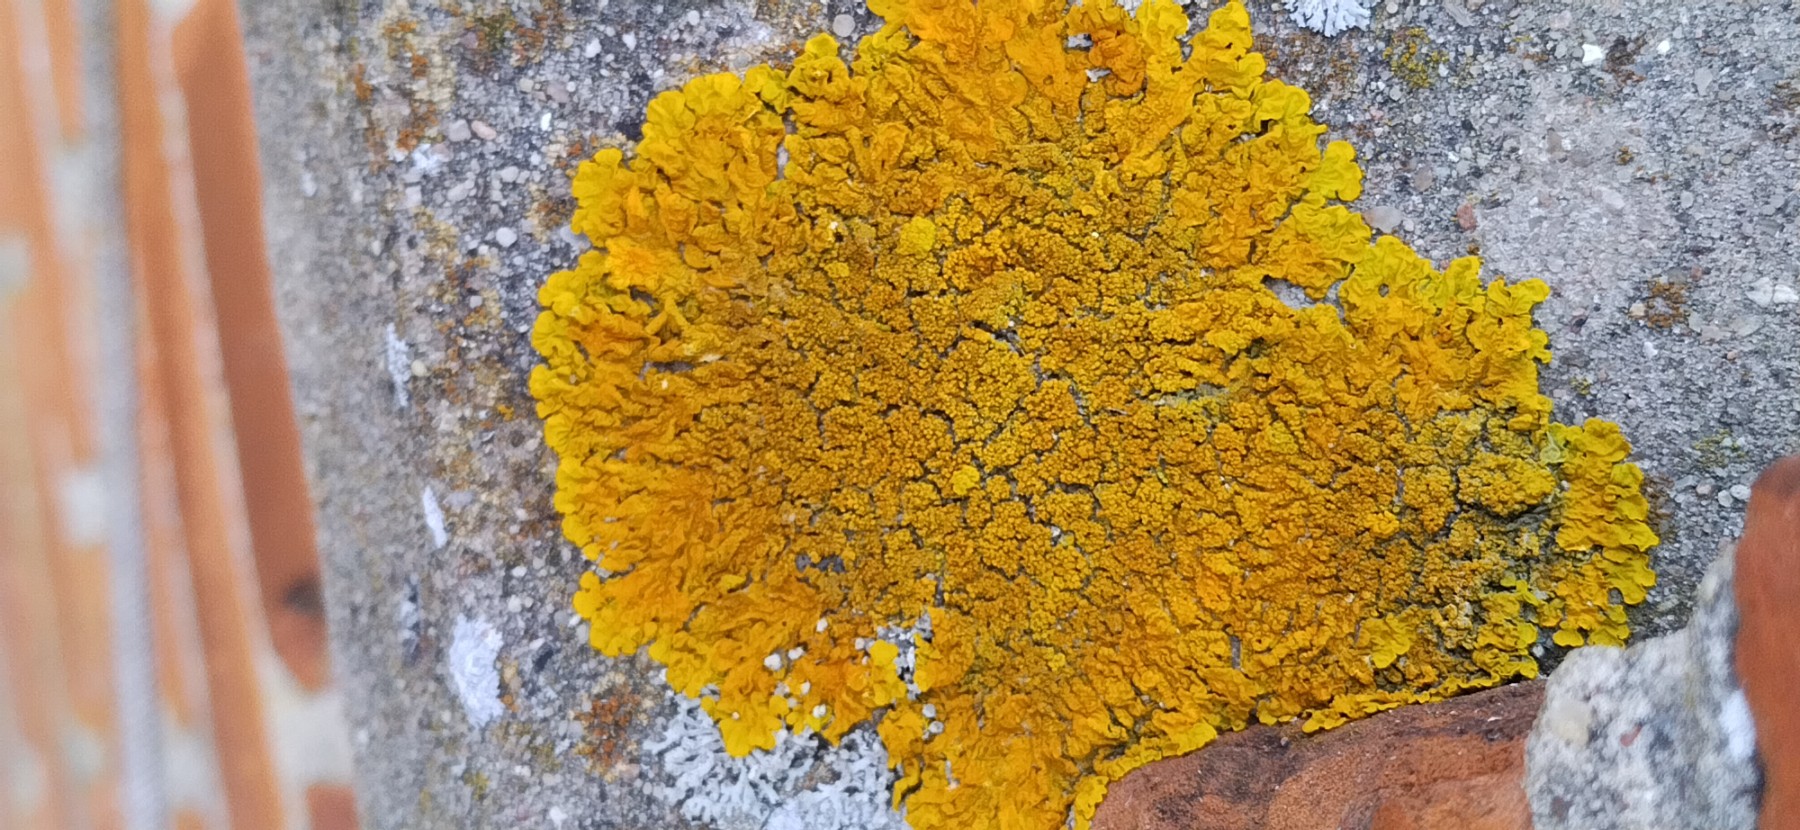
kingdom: Fungi
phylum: Ascomycota
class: Lecanoromycetes
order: Teloschistales
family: Teloschistaceae
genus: Xanthoria
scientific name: Xanthoria calcicola
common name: vortet væggelav
